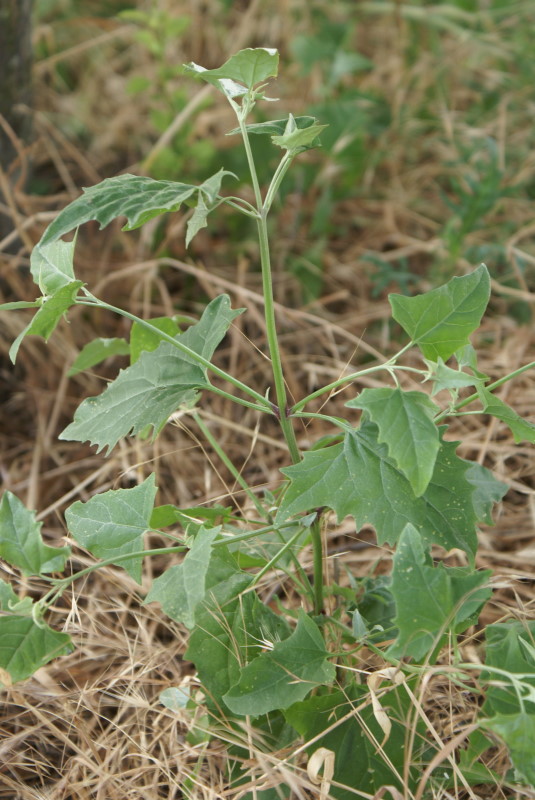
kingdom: Plantae
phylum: Tracheophyta
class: Magnoliopsida
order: Asterales
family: Asteraceae
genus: Xanthium
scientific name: Xanthium strumarium
